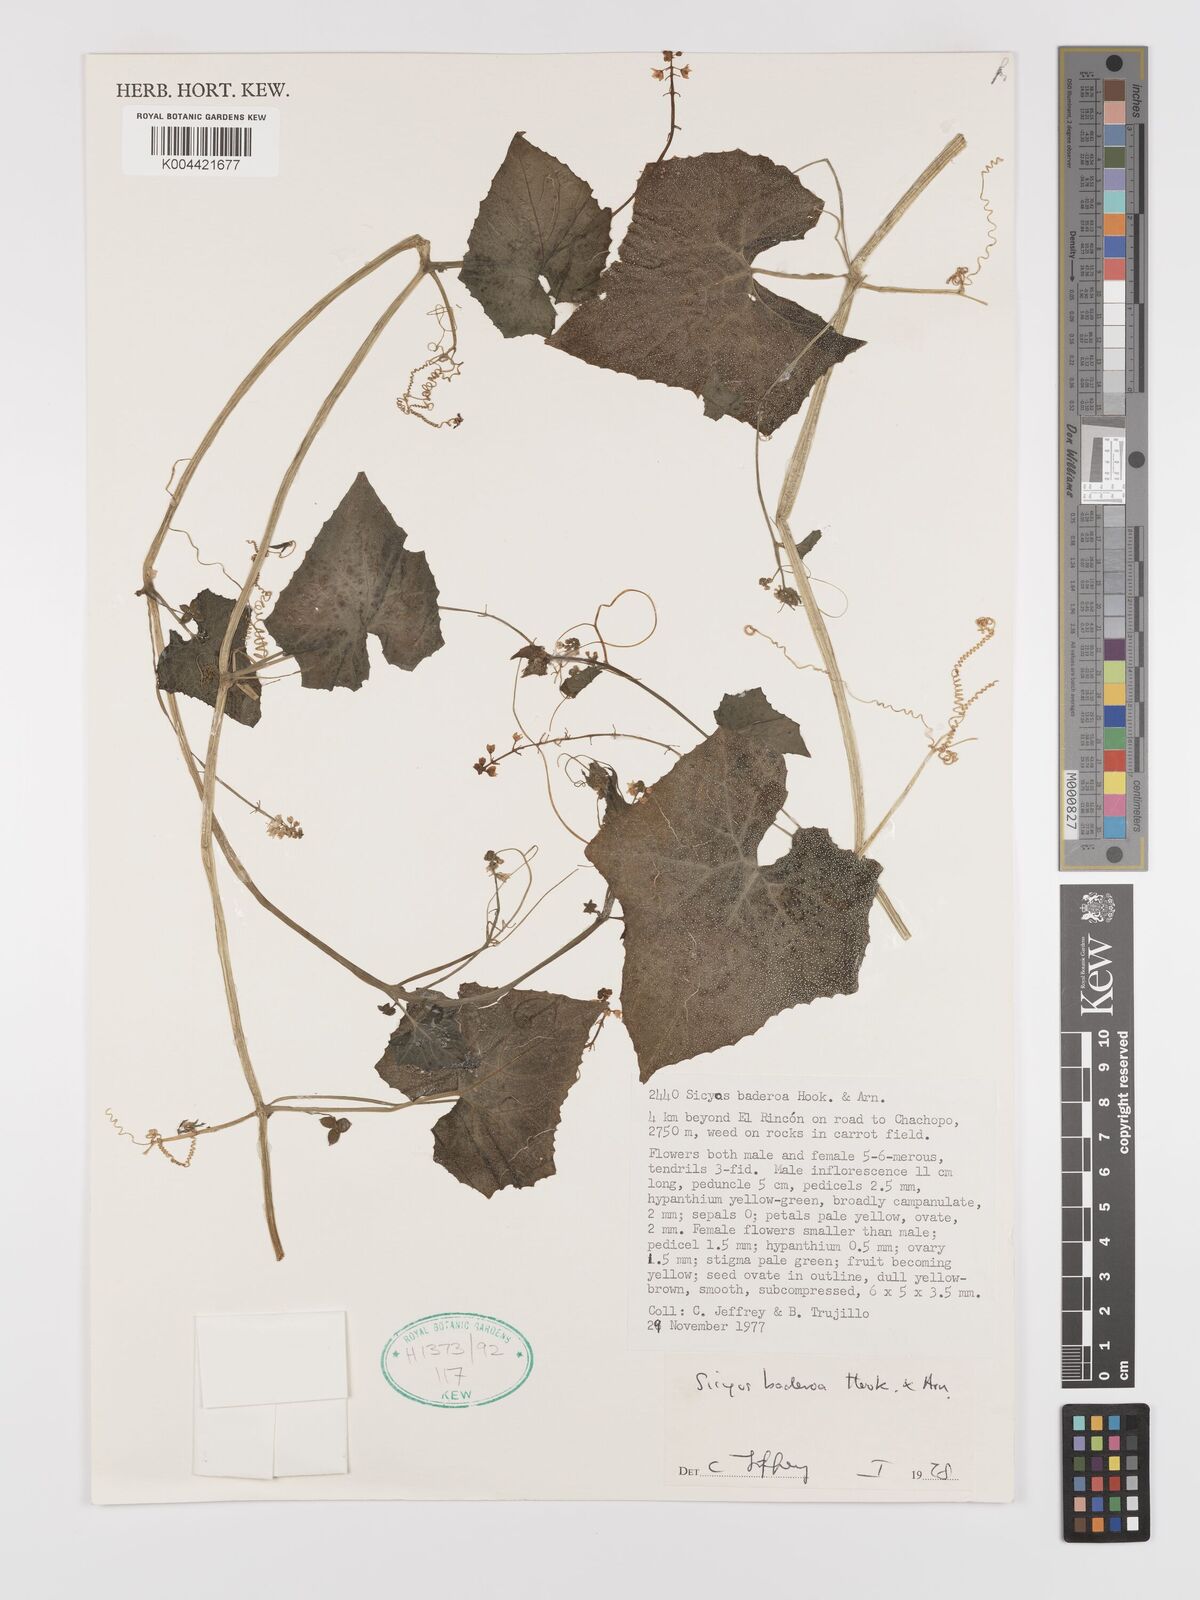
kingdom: Plantae
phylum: Tracheophyta
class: Magnoliopsida
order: Cucurbitales
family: Cucurbitaceae
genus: Sicyos
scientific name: Sicyos baderoa
